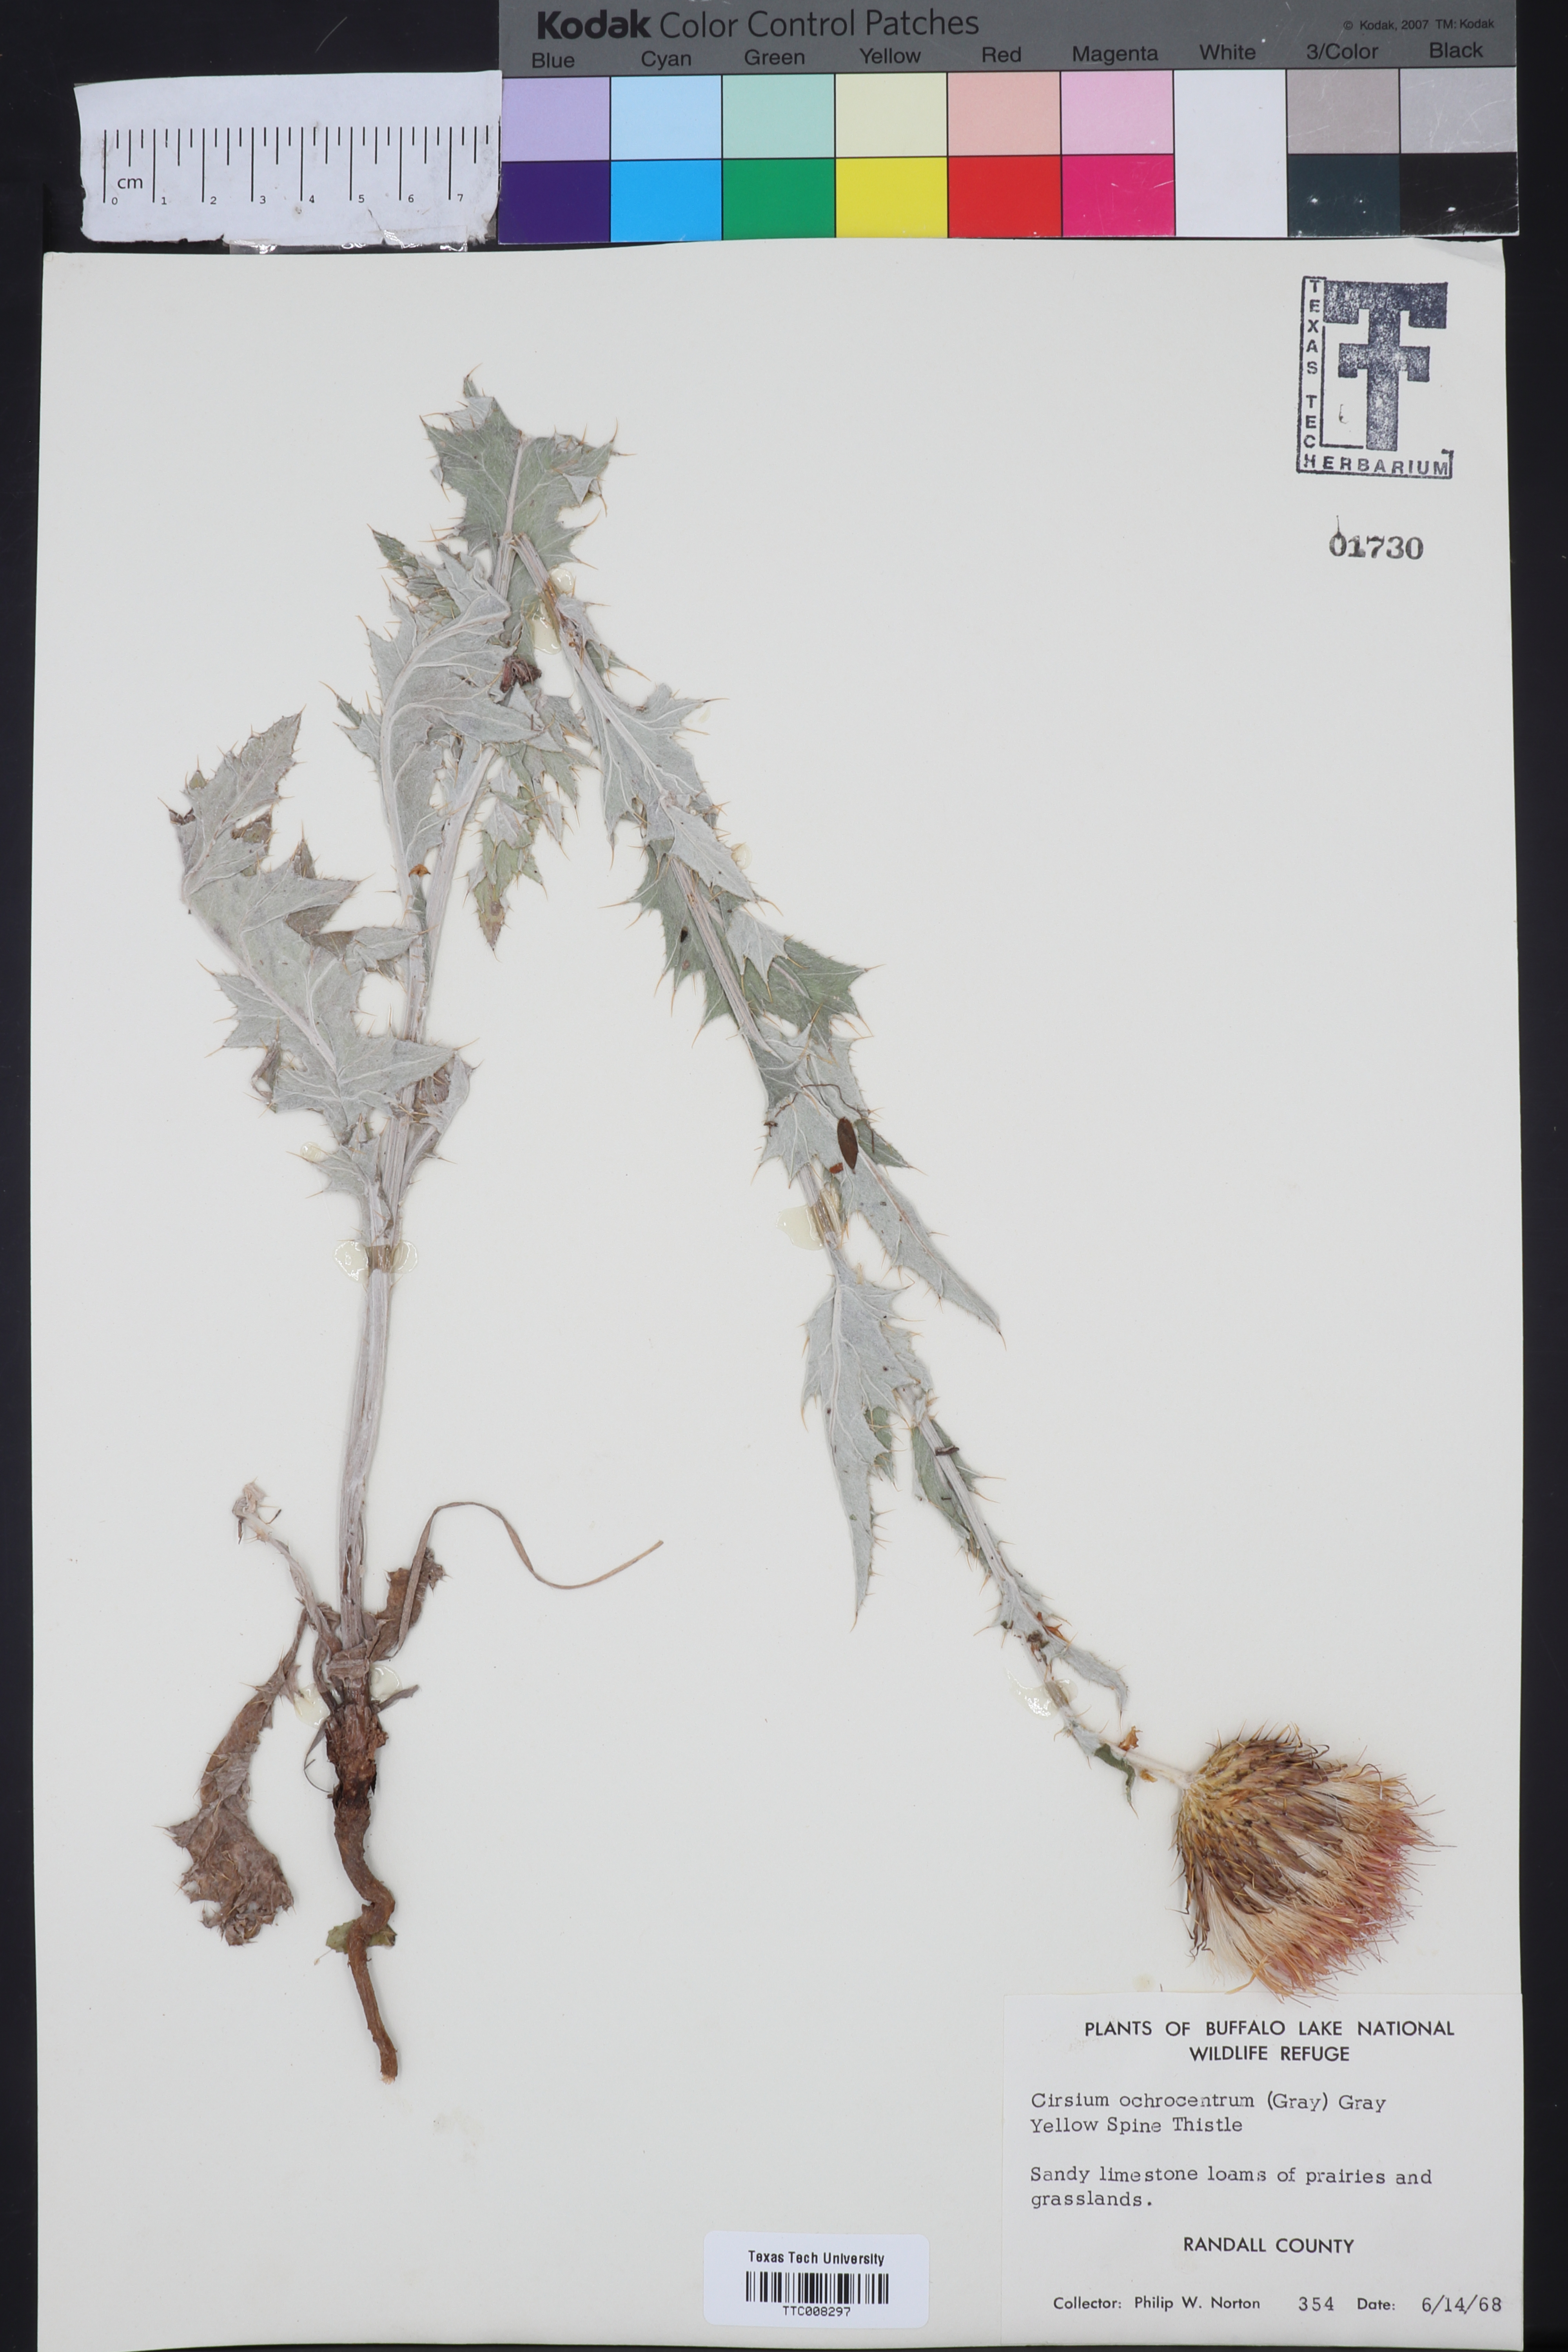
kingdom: Plantae
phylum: Tracheophyta
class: Magnoliopsida
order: Asterales
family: Asteraceae
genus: Cirsium
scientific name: Cirsium ochrocentrum
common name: Yellow-spine thistle
